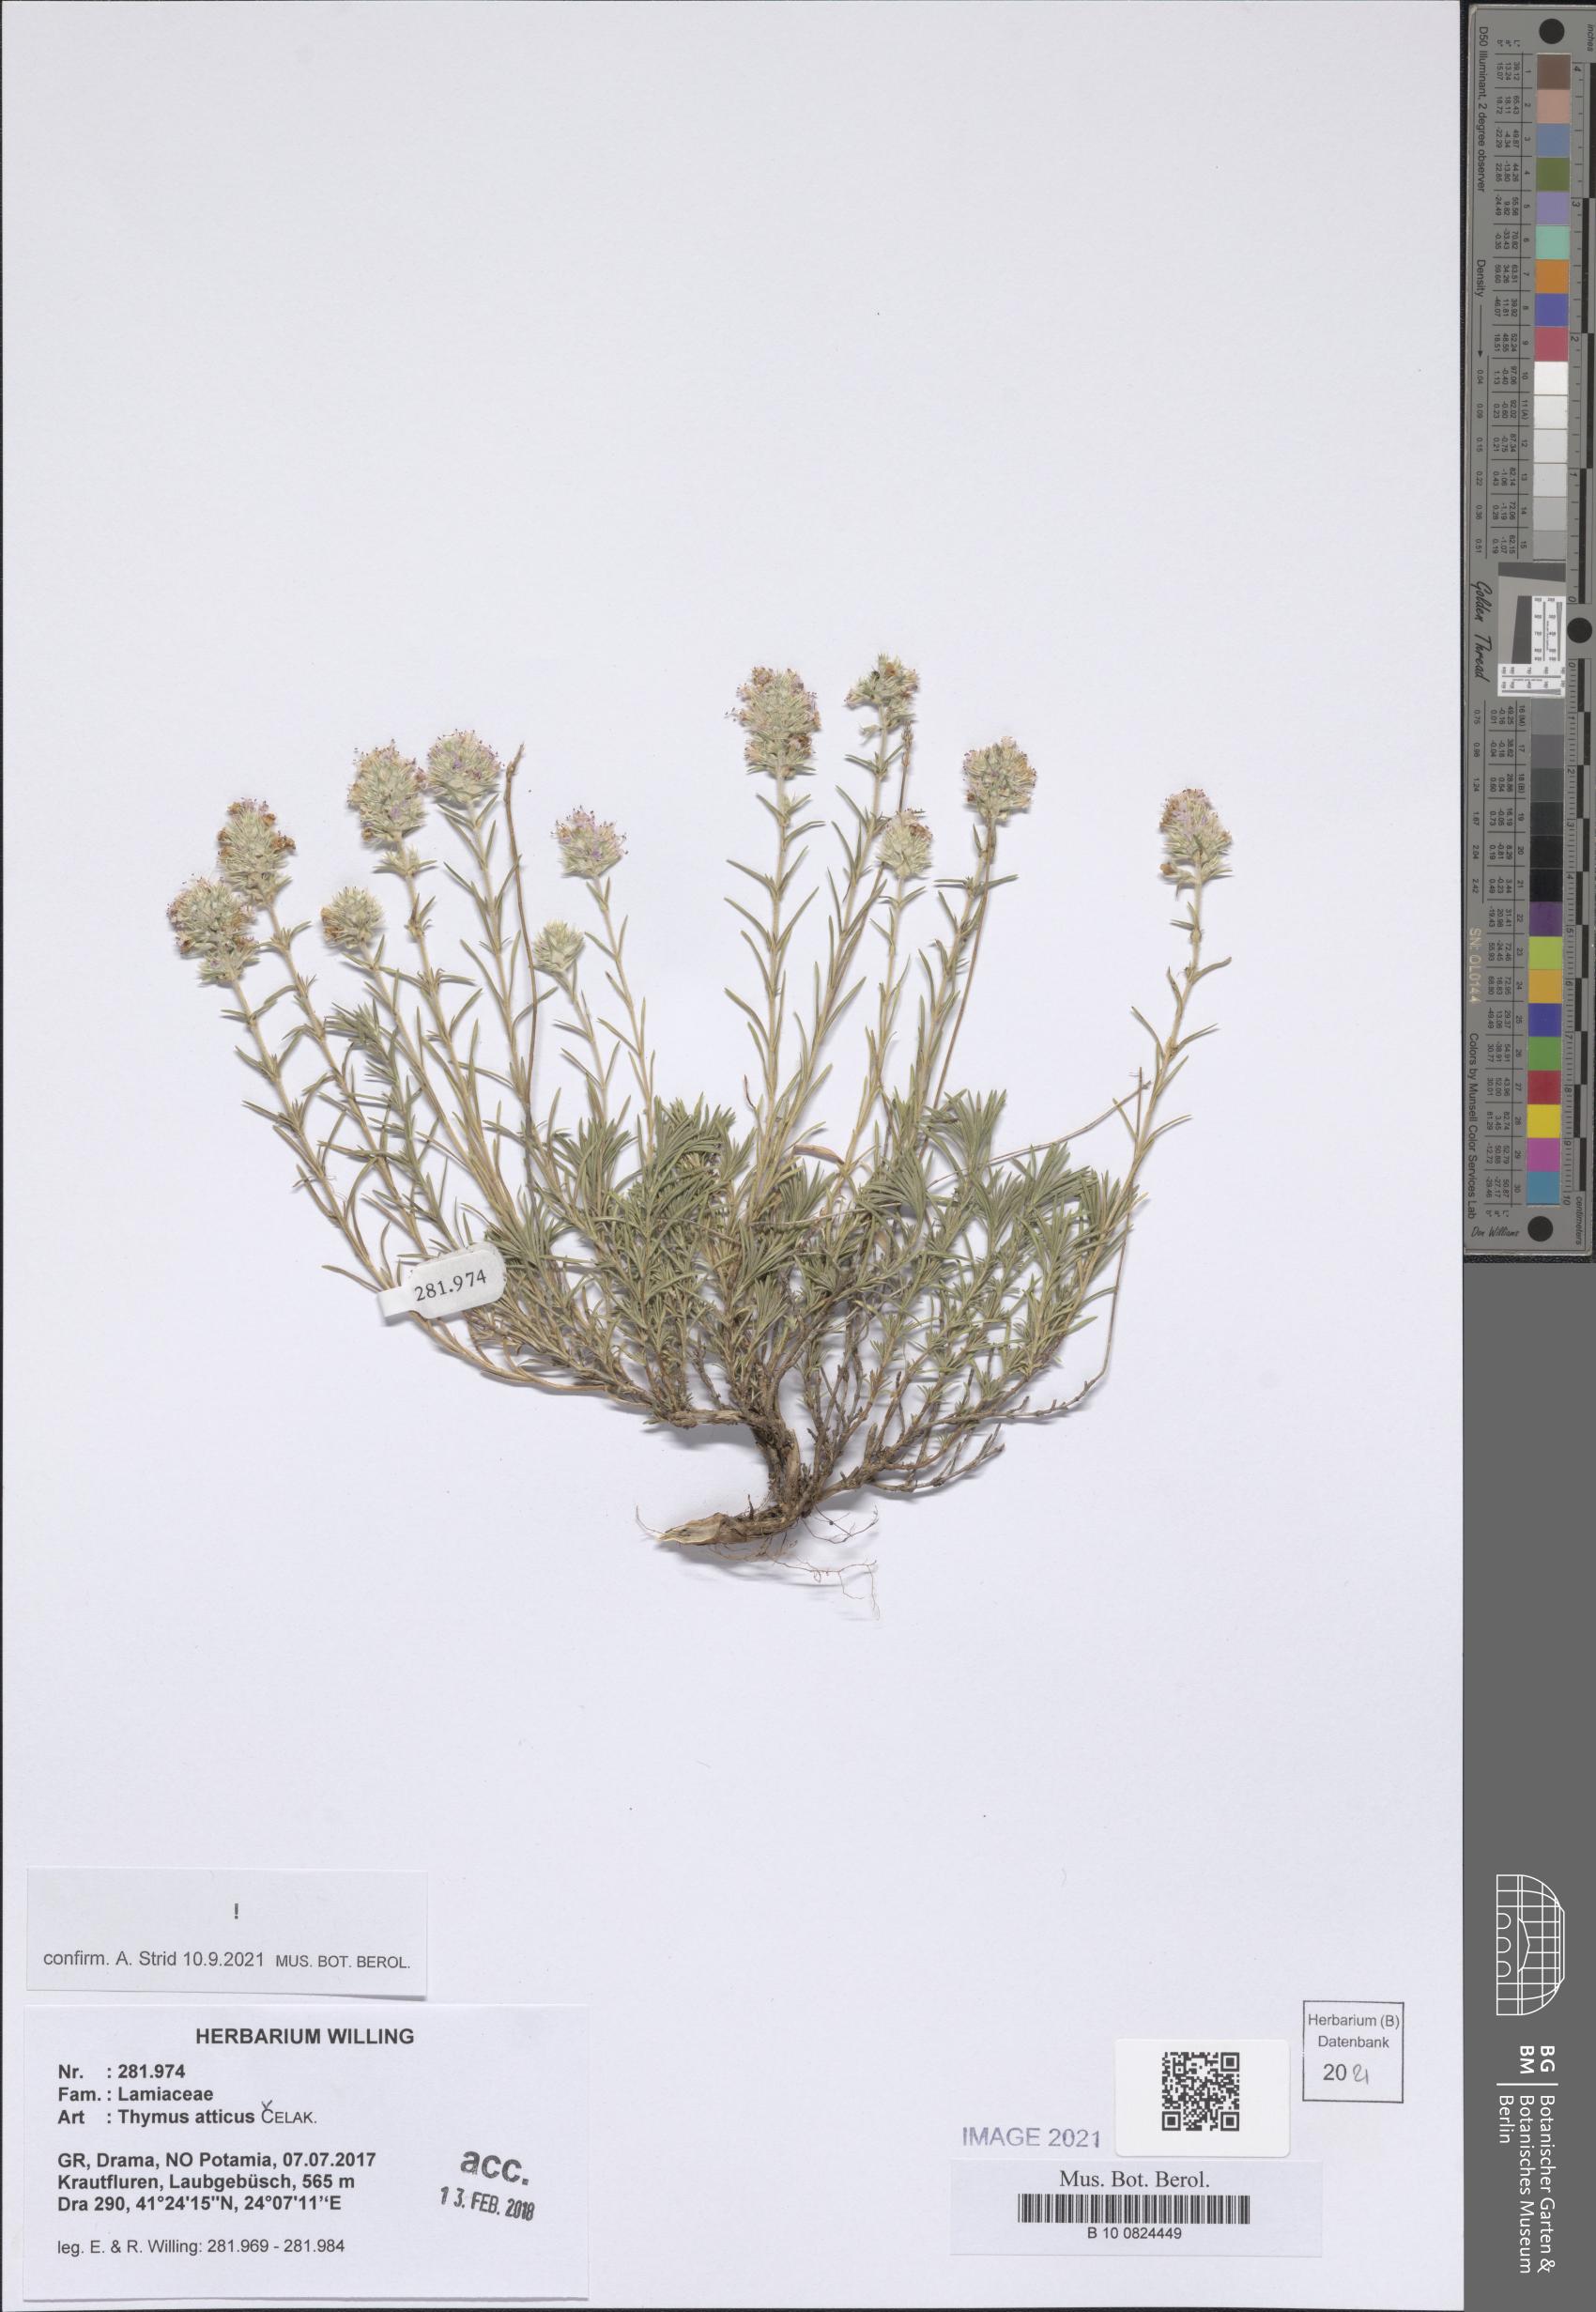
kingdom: Plantae
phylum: Tracheophyta
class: Magnoliopsida
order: Lamiales
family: Lamiaceae
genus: Thymus
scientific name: Thymus atticus
